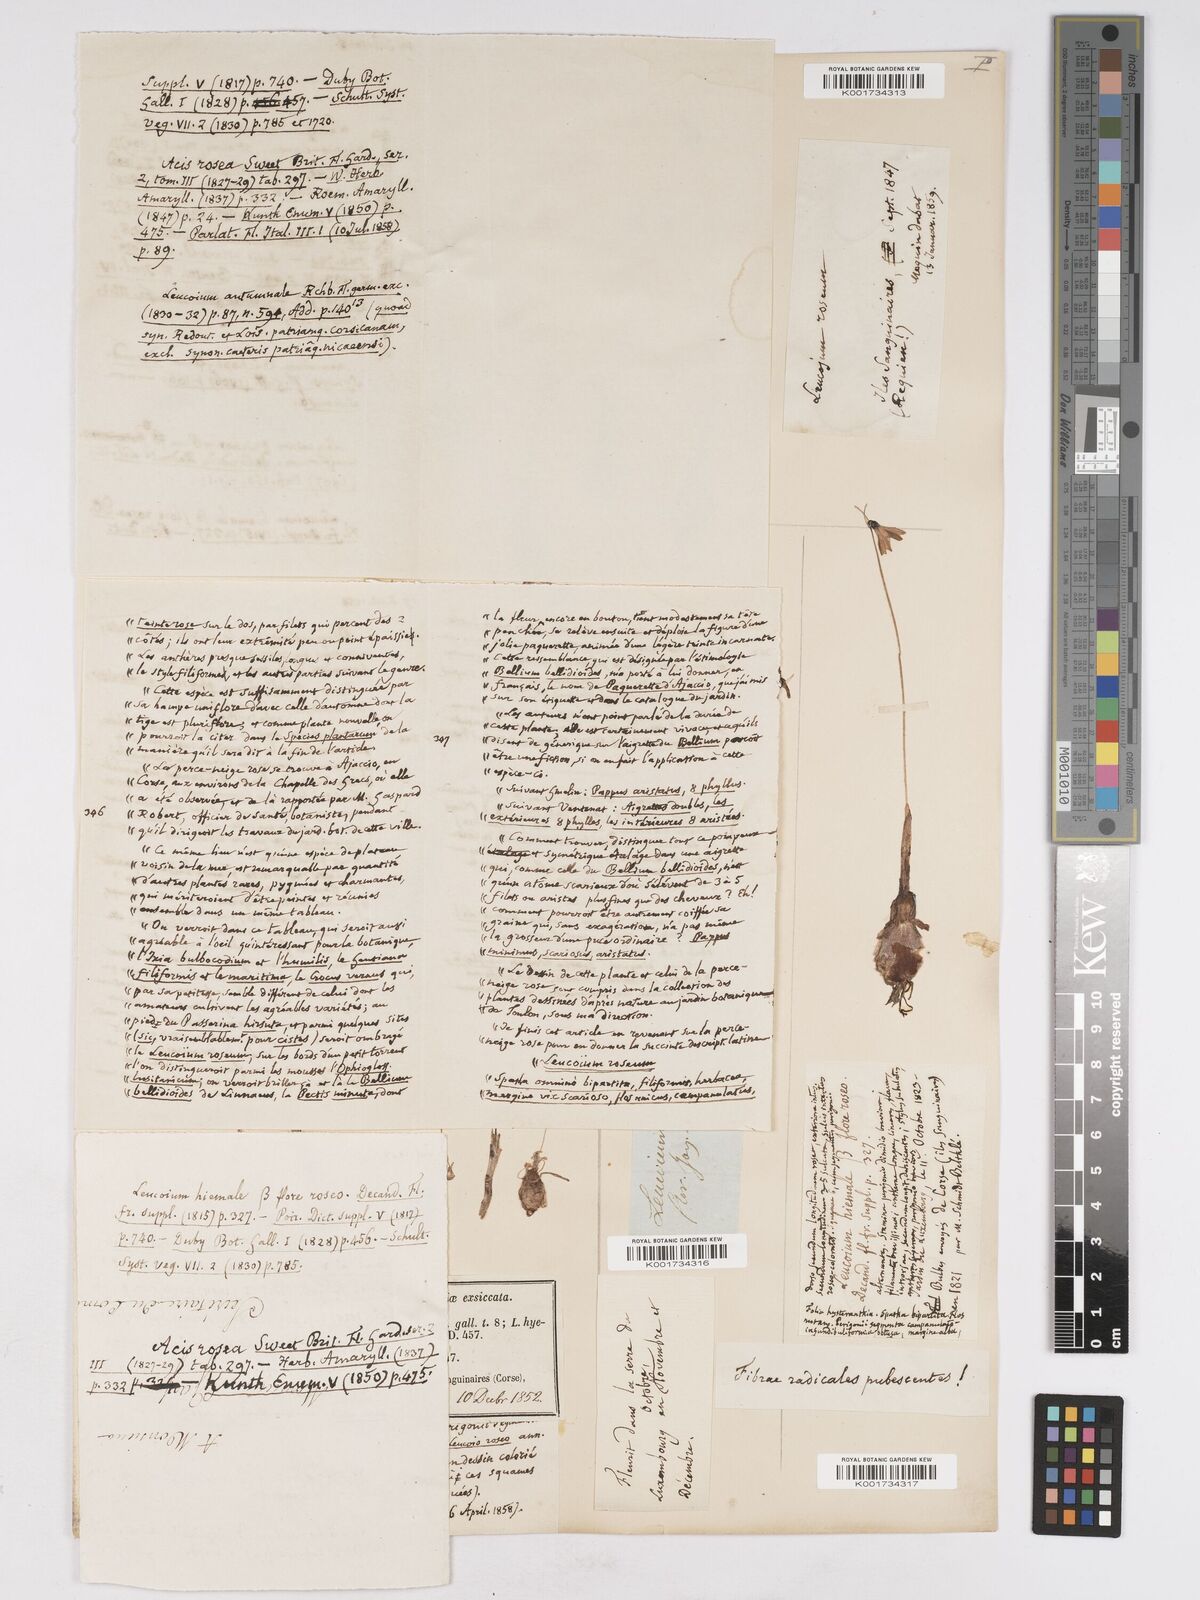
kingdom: Plantae
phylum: Tracheophyta
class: Liliopsida
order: Asparagales
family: Amaryllidaceae
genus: Acis
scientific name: Acis rosea
